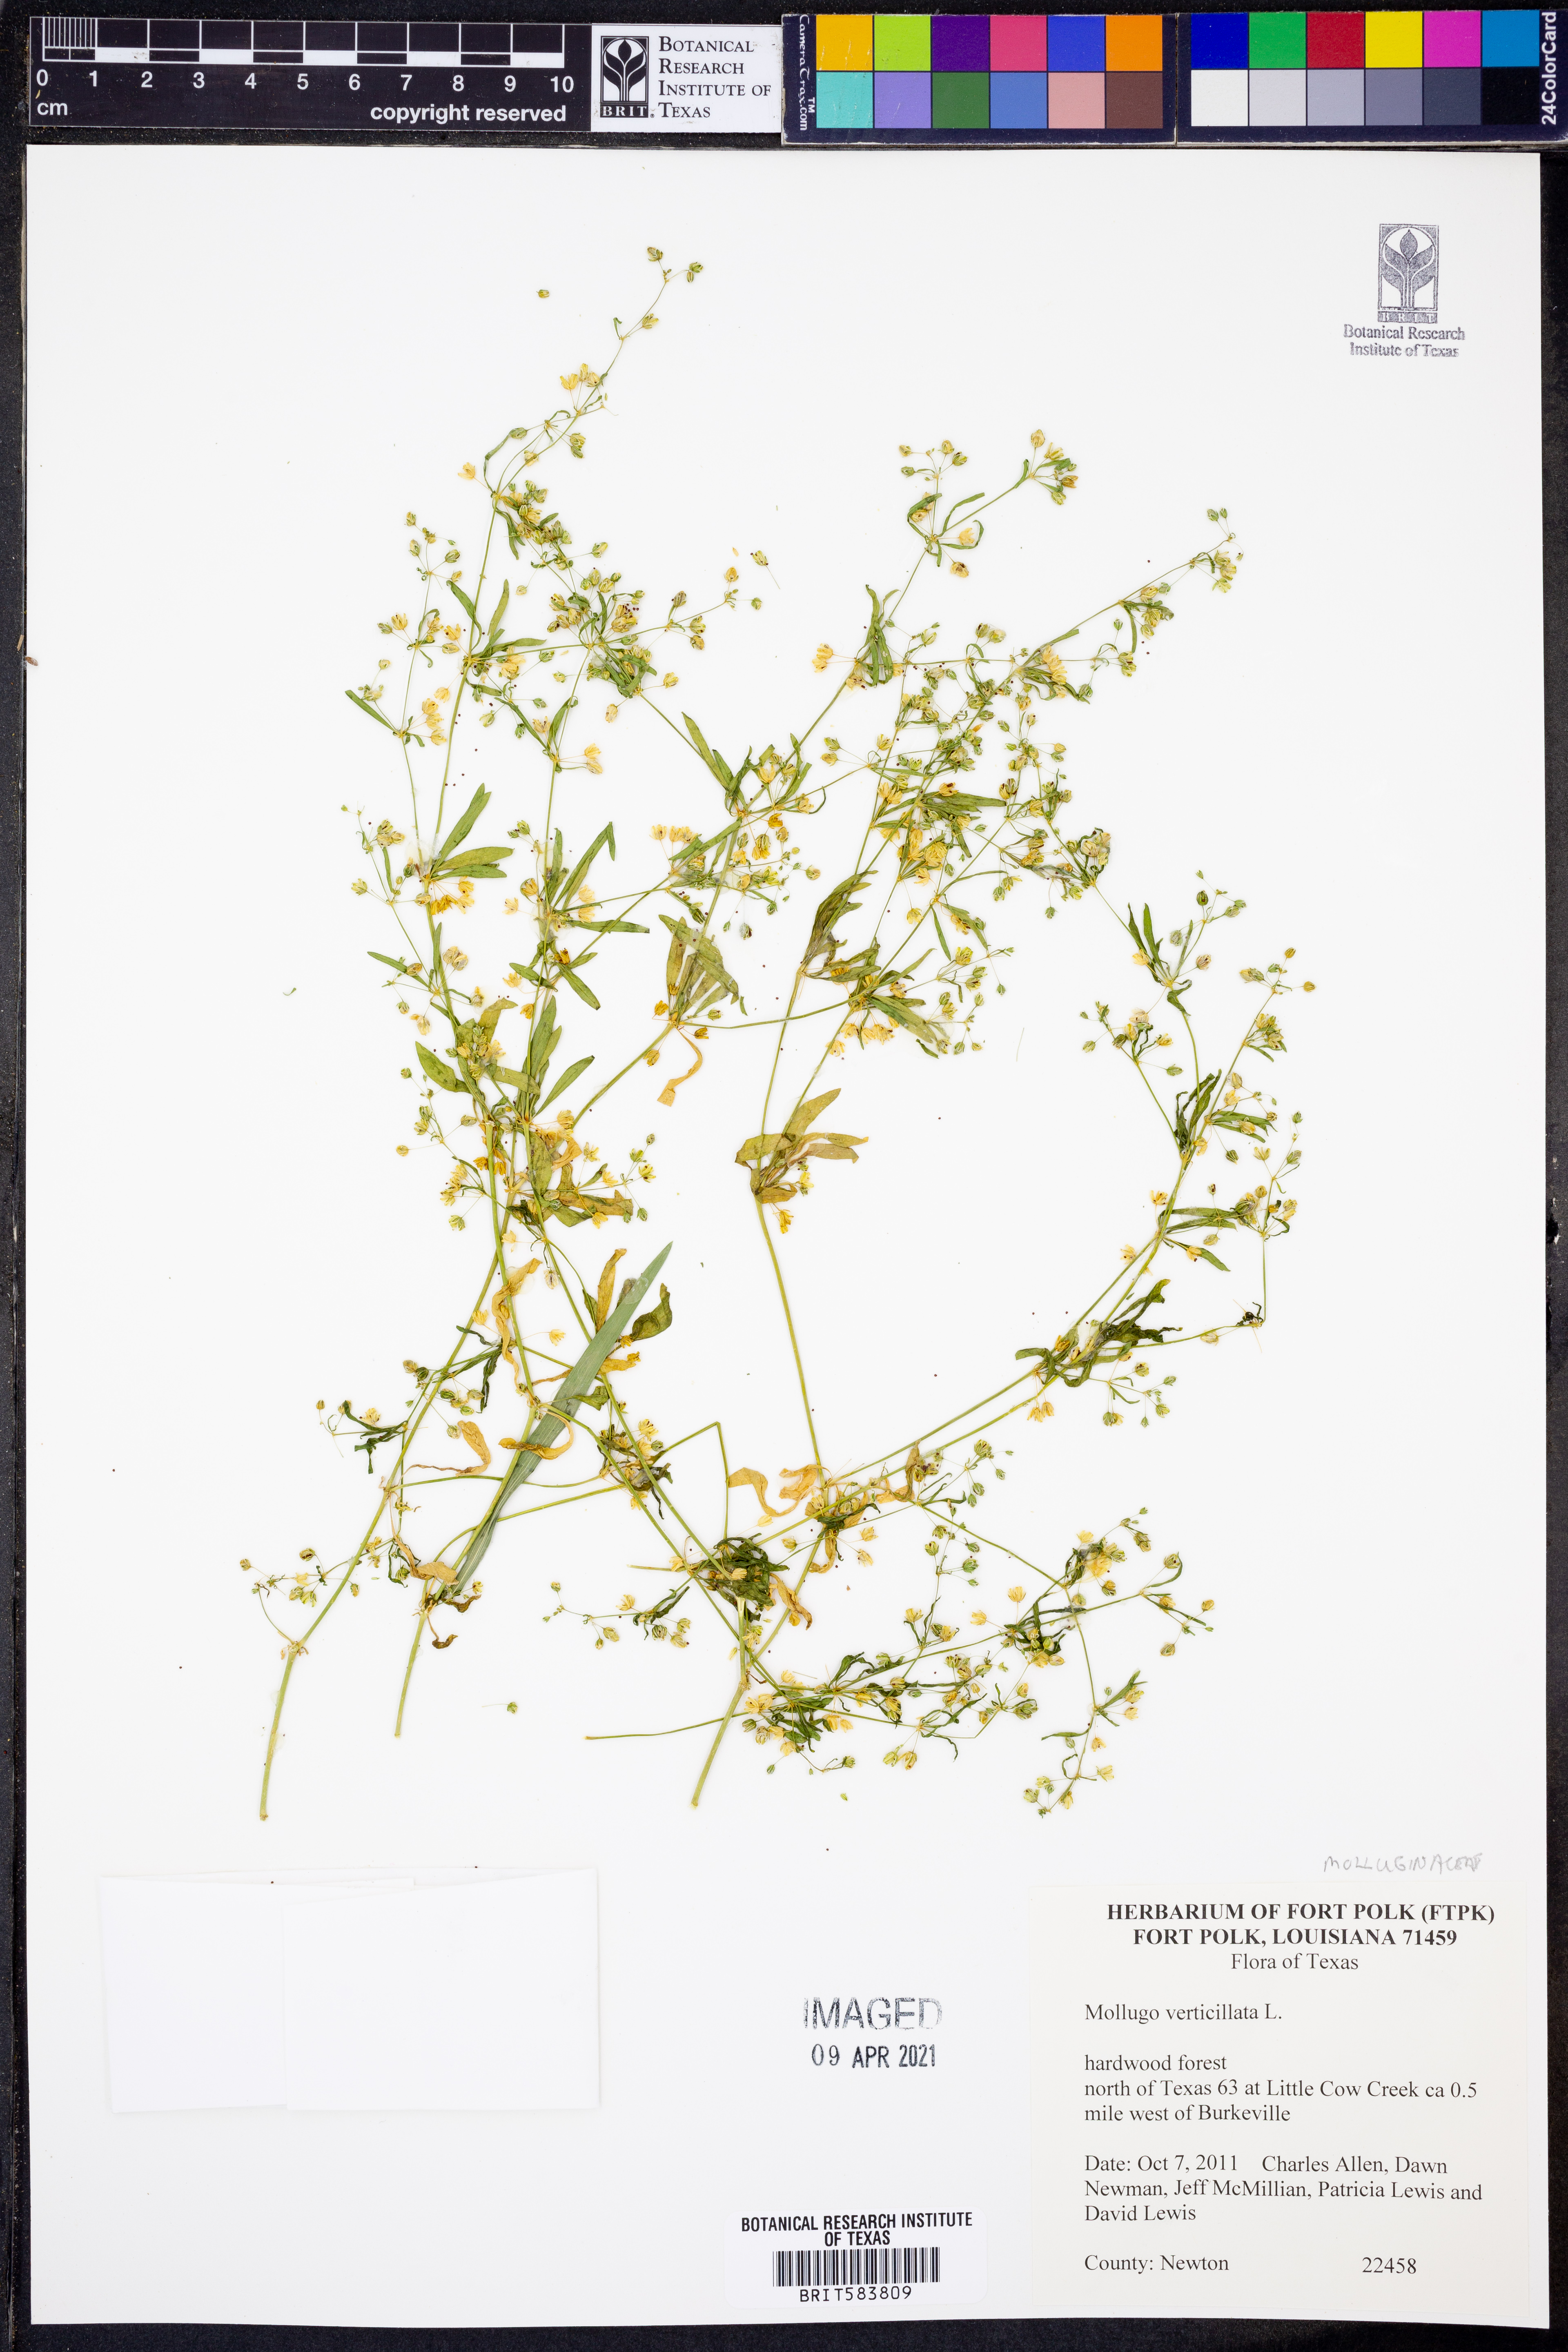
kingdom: Plantae
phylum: Tracheophyta
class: Magnoliopsida
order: Caryophyllales
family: Molluginaceae
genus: Mollugo
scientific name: Mollugo verticillata
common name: Green carpetweed
